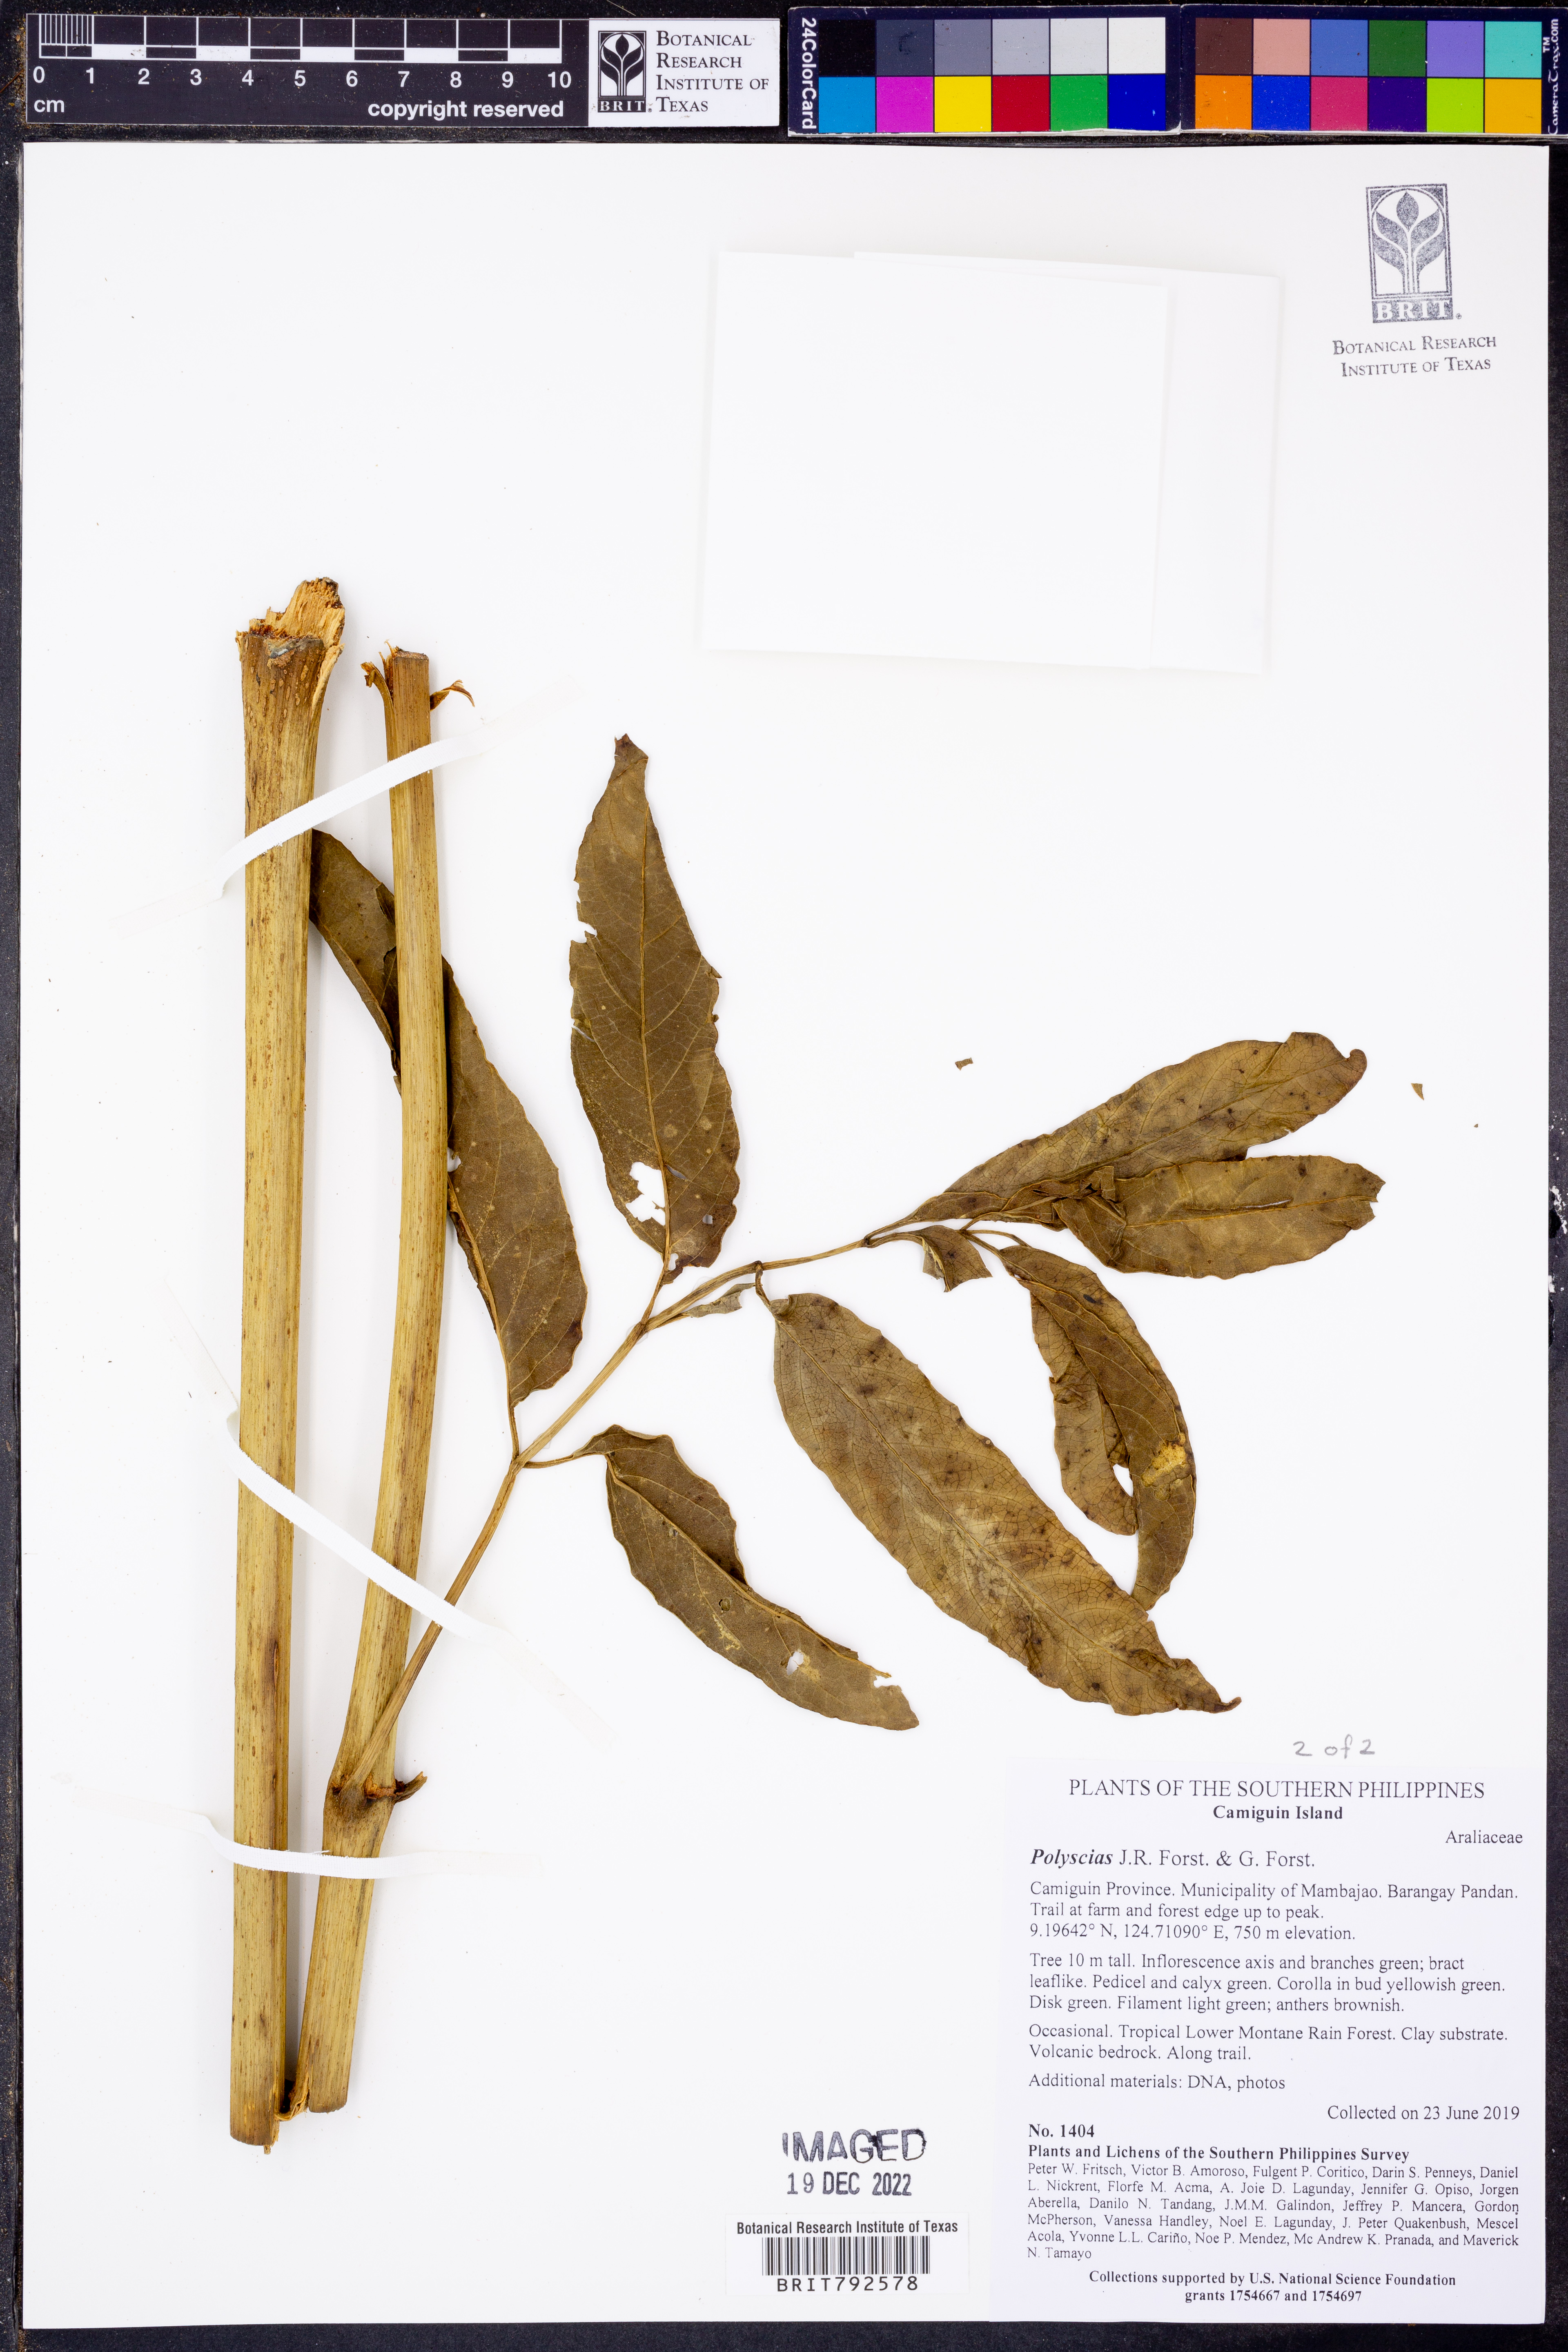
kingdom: Plantae
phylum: Tracheophyta
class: Magnoliopsida
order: Apiales
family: Araliaceae
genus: Polyscias
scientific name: Polyscias
